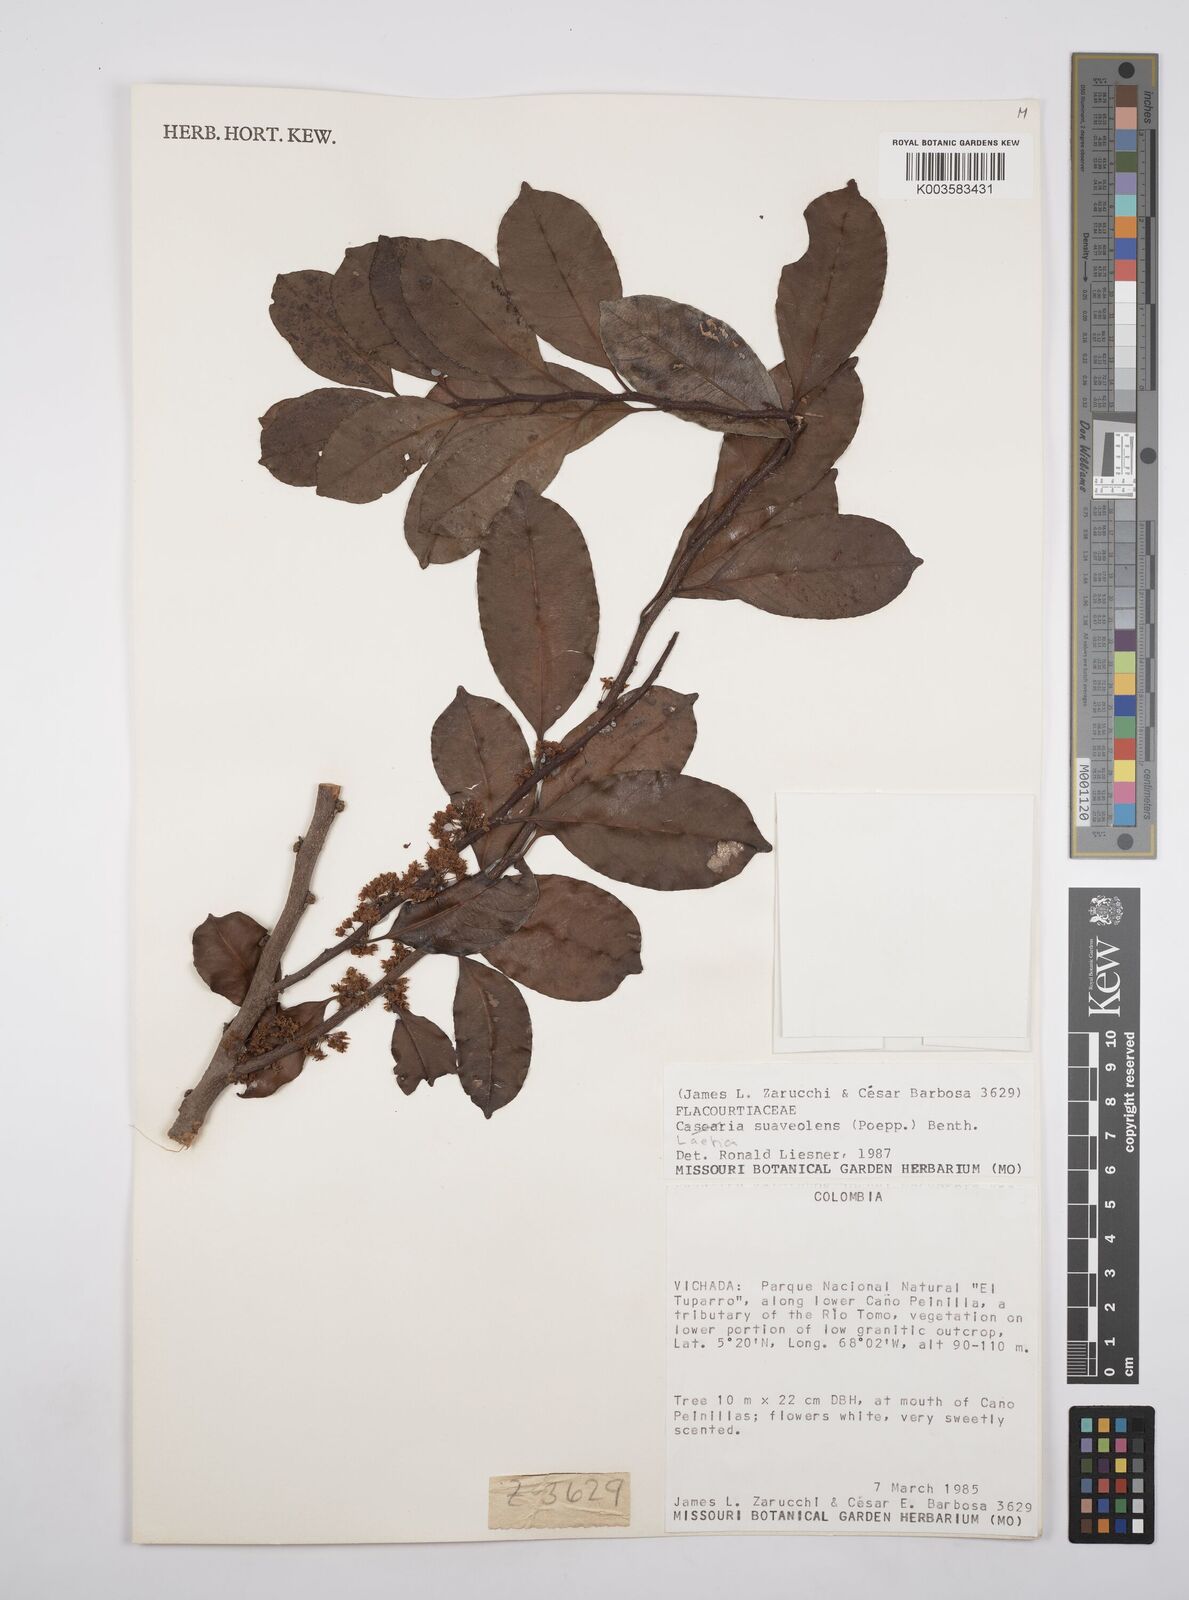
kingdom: Plantae
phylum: Tracheophyta
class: Magnoliopsida
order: Malpighiales
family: Salicaceae
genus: Casearia
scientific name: Casearia suaveolens
